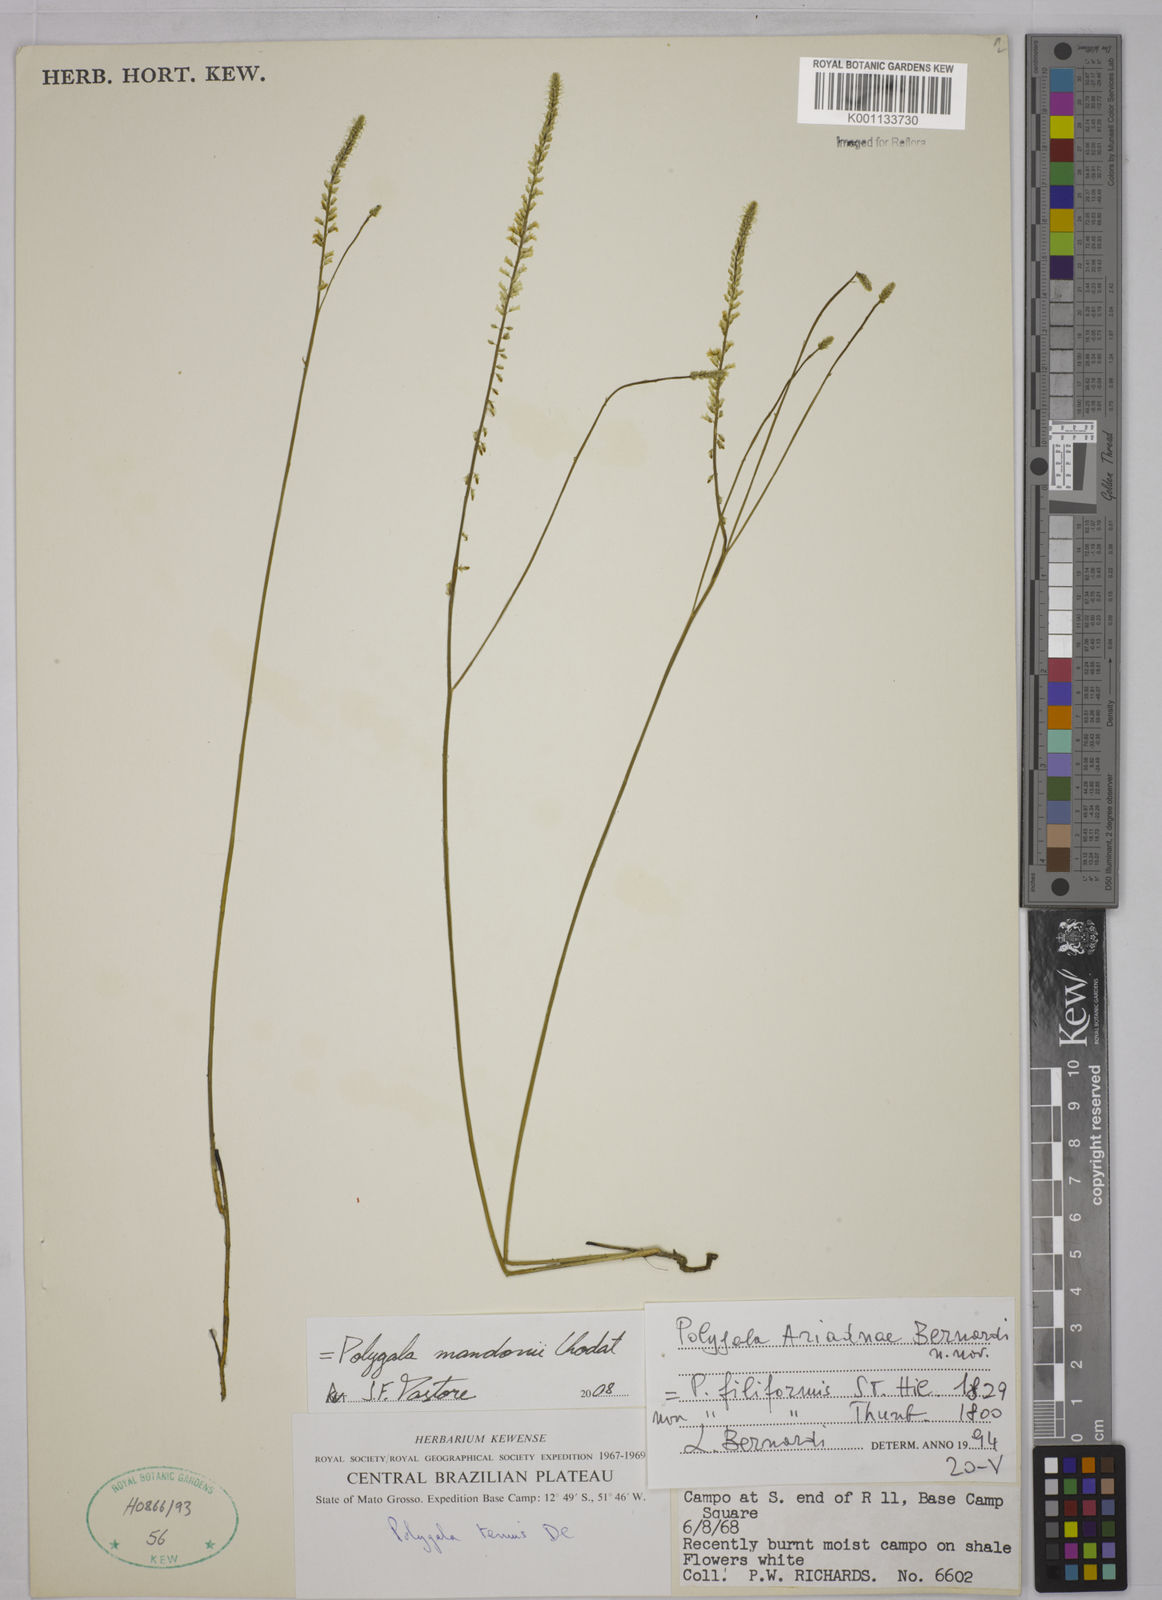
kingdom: Plantae
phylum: Tracheophyta
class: Magnoliopsida
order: Fabales
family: Polygalaceae
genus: Polygala
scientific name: Polygala mandonii
